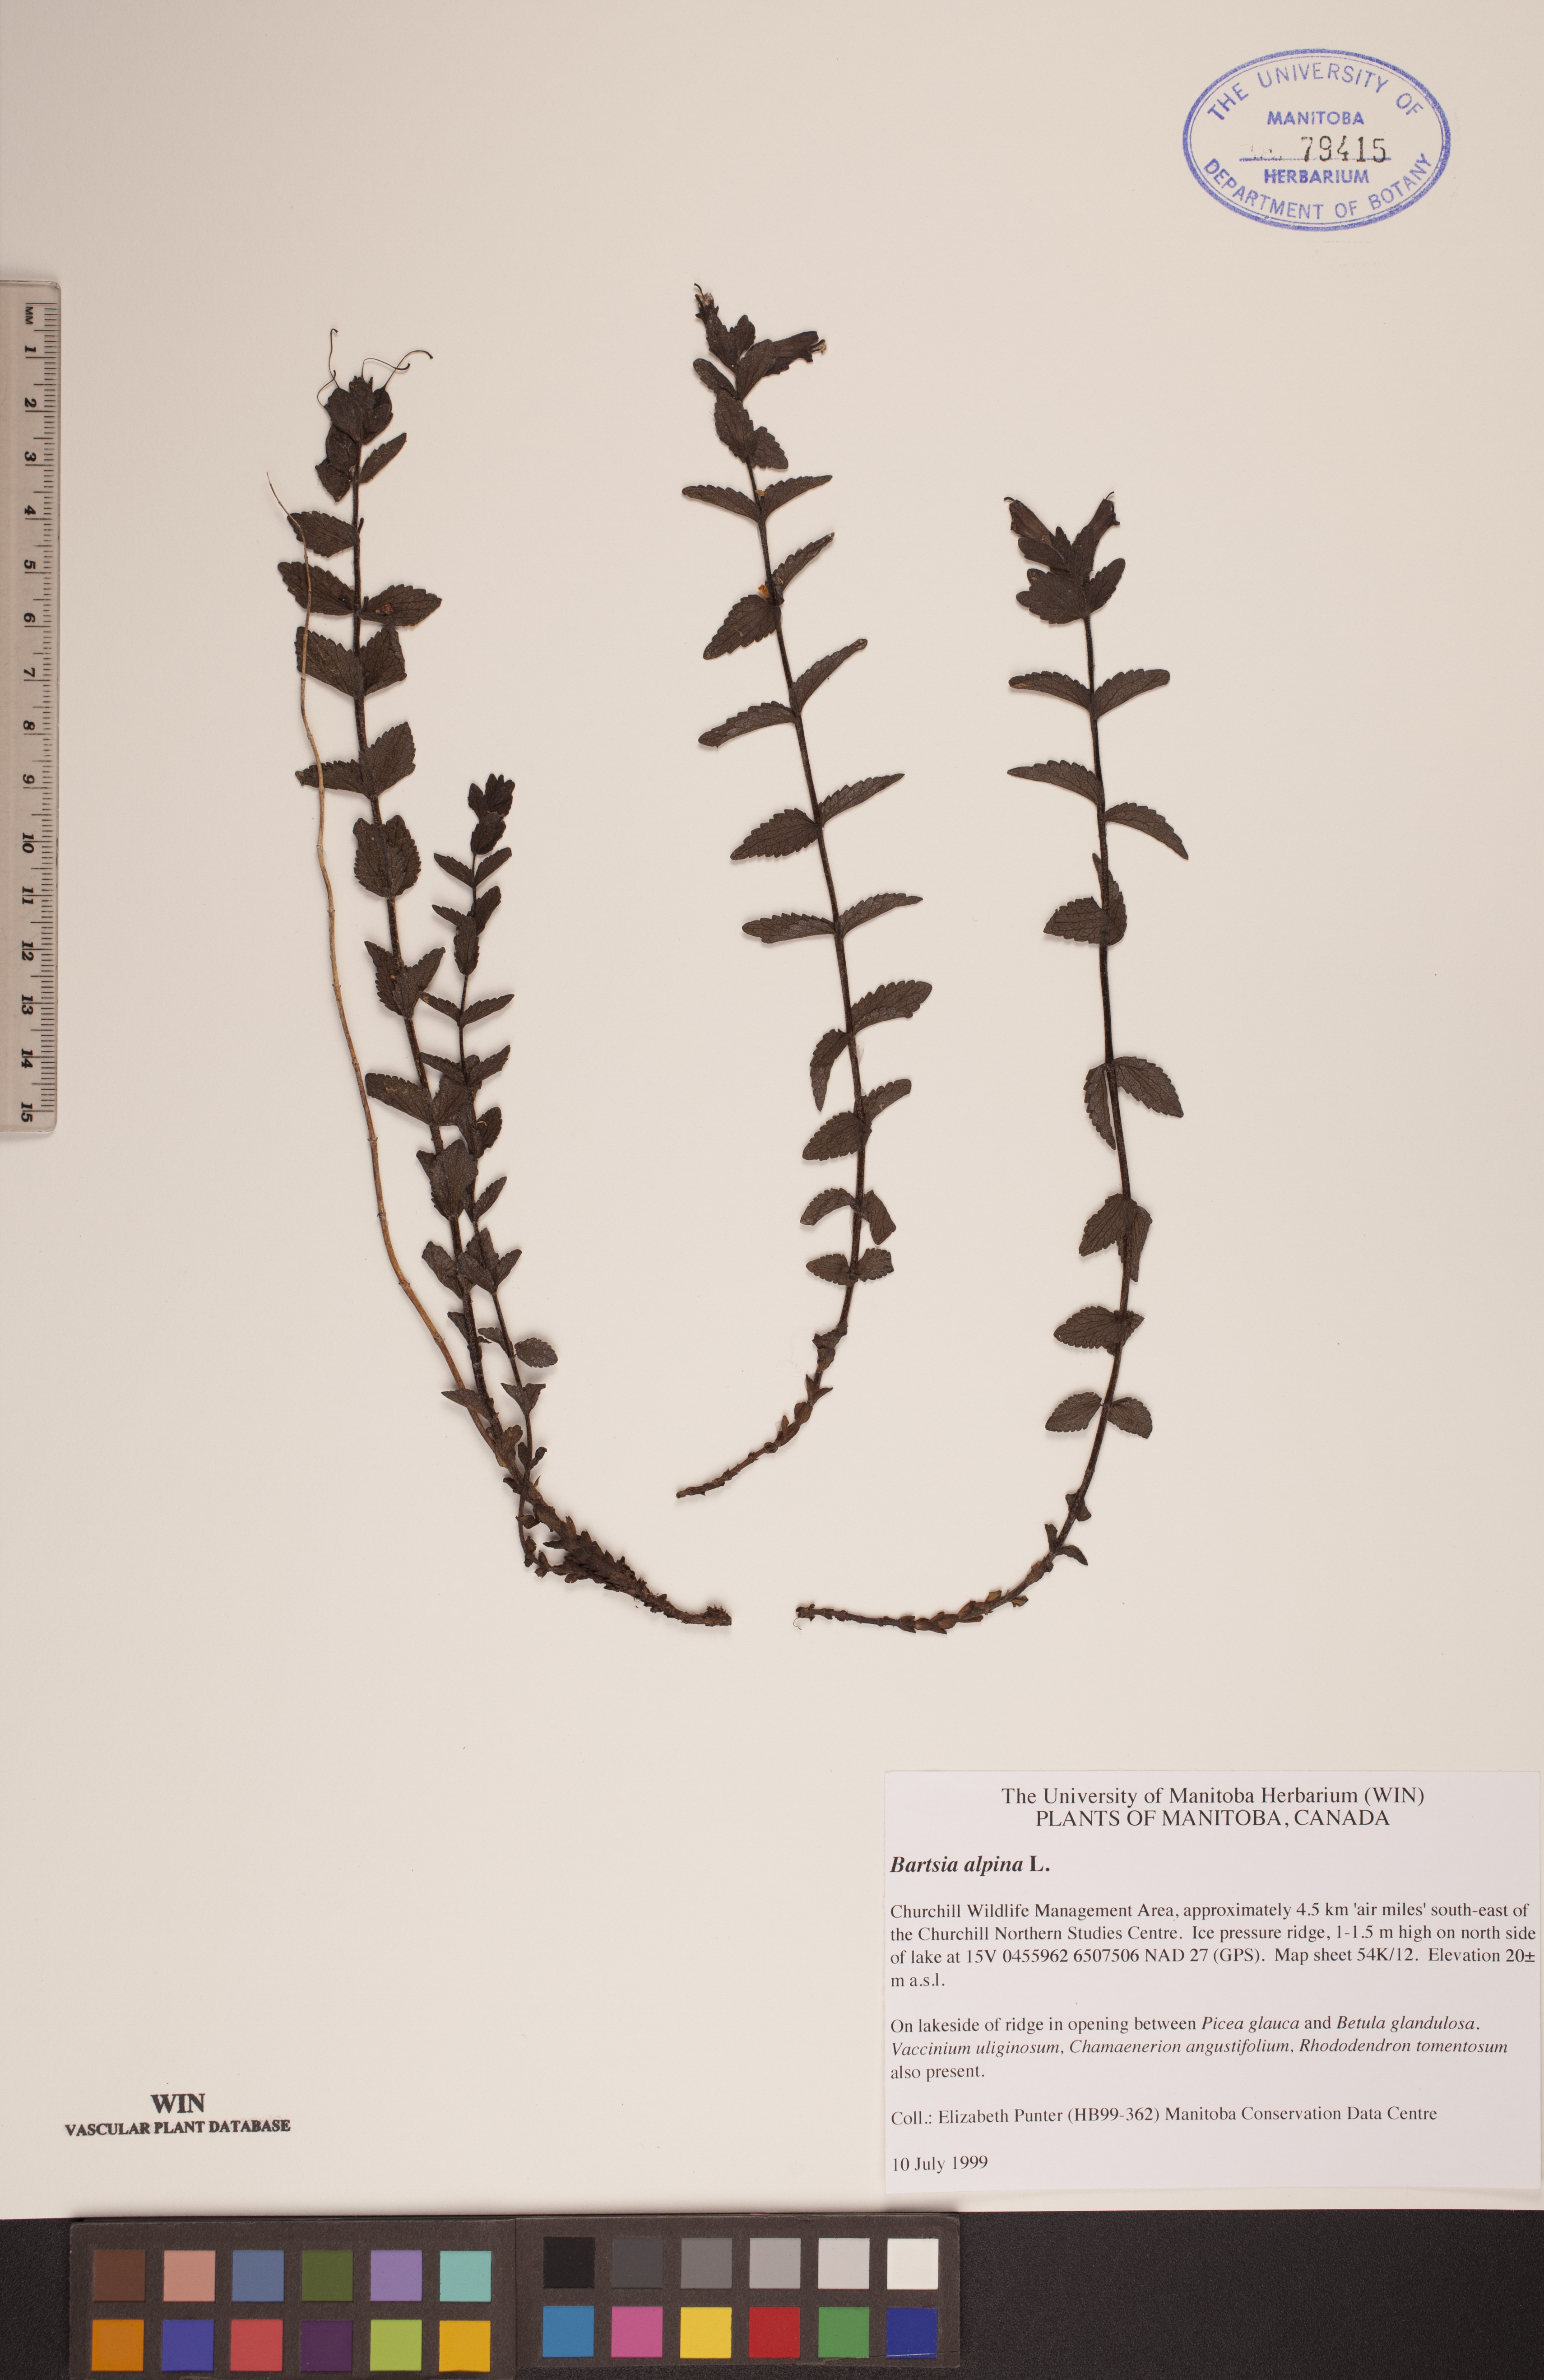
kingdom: Plantae
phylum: Tracheophyta
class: Magnoliopsida
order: Lamiales
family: Orobanchaceae
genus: Bartsia
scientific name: Bartsia alpina
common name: Alpine bartsia
